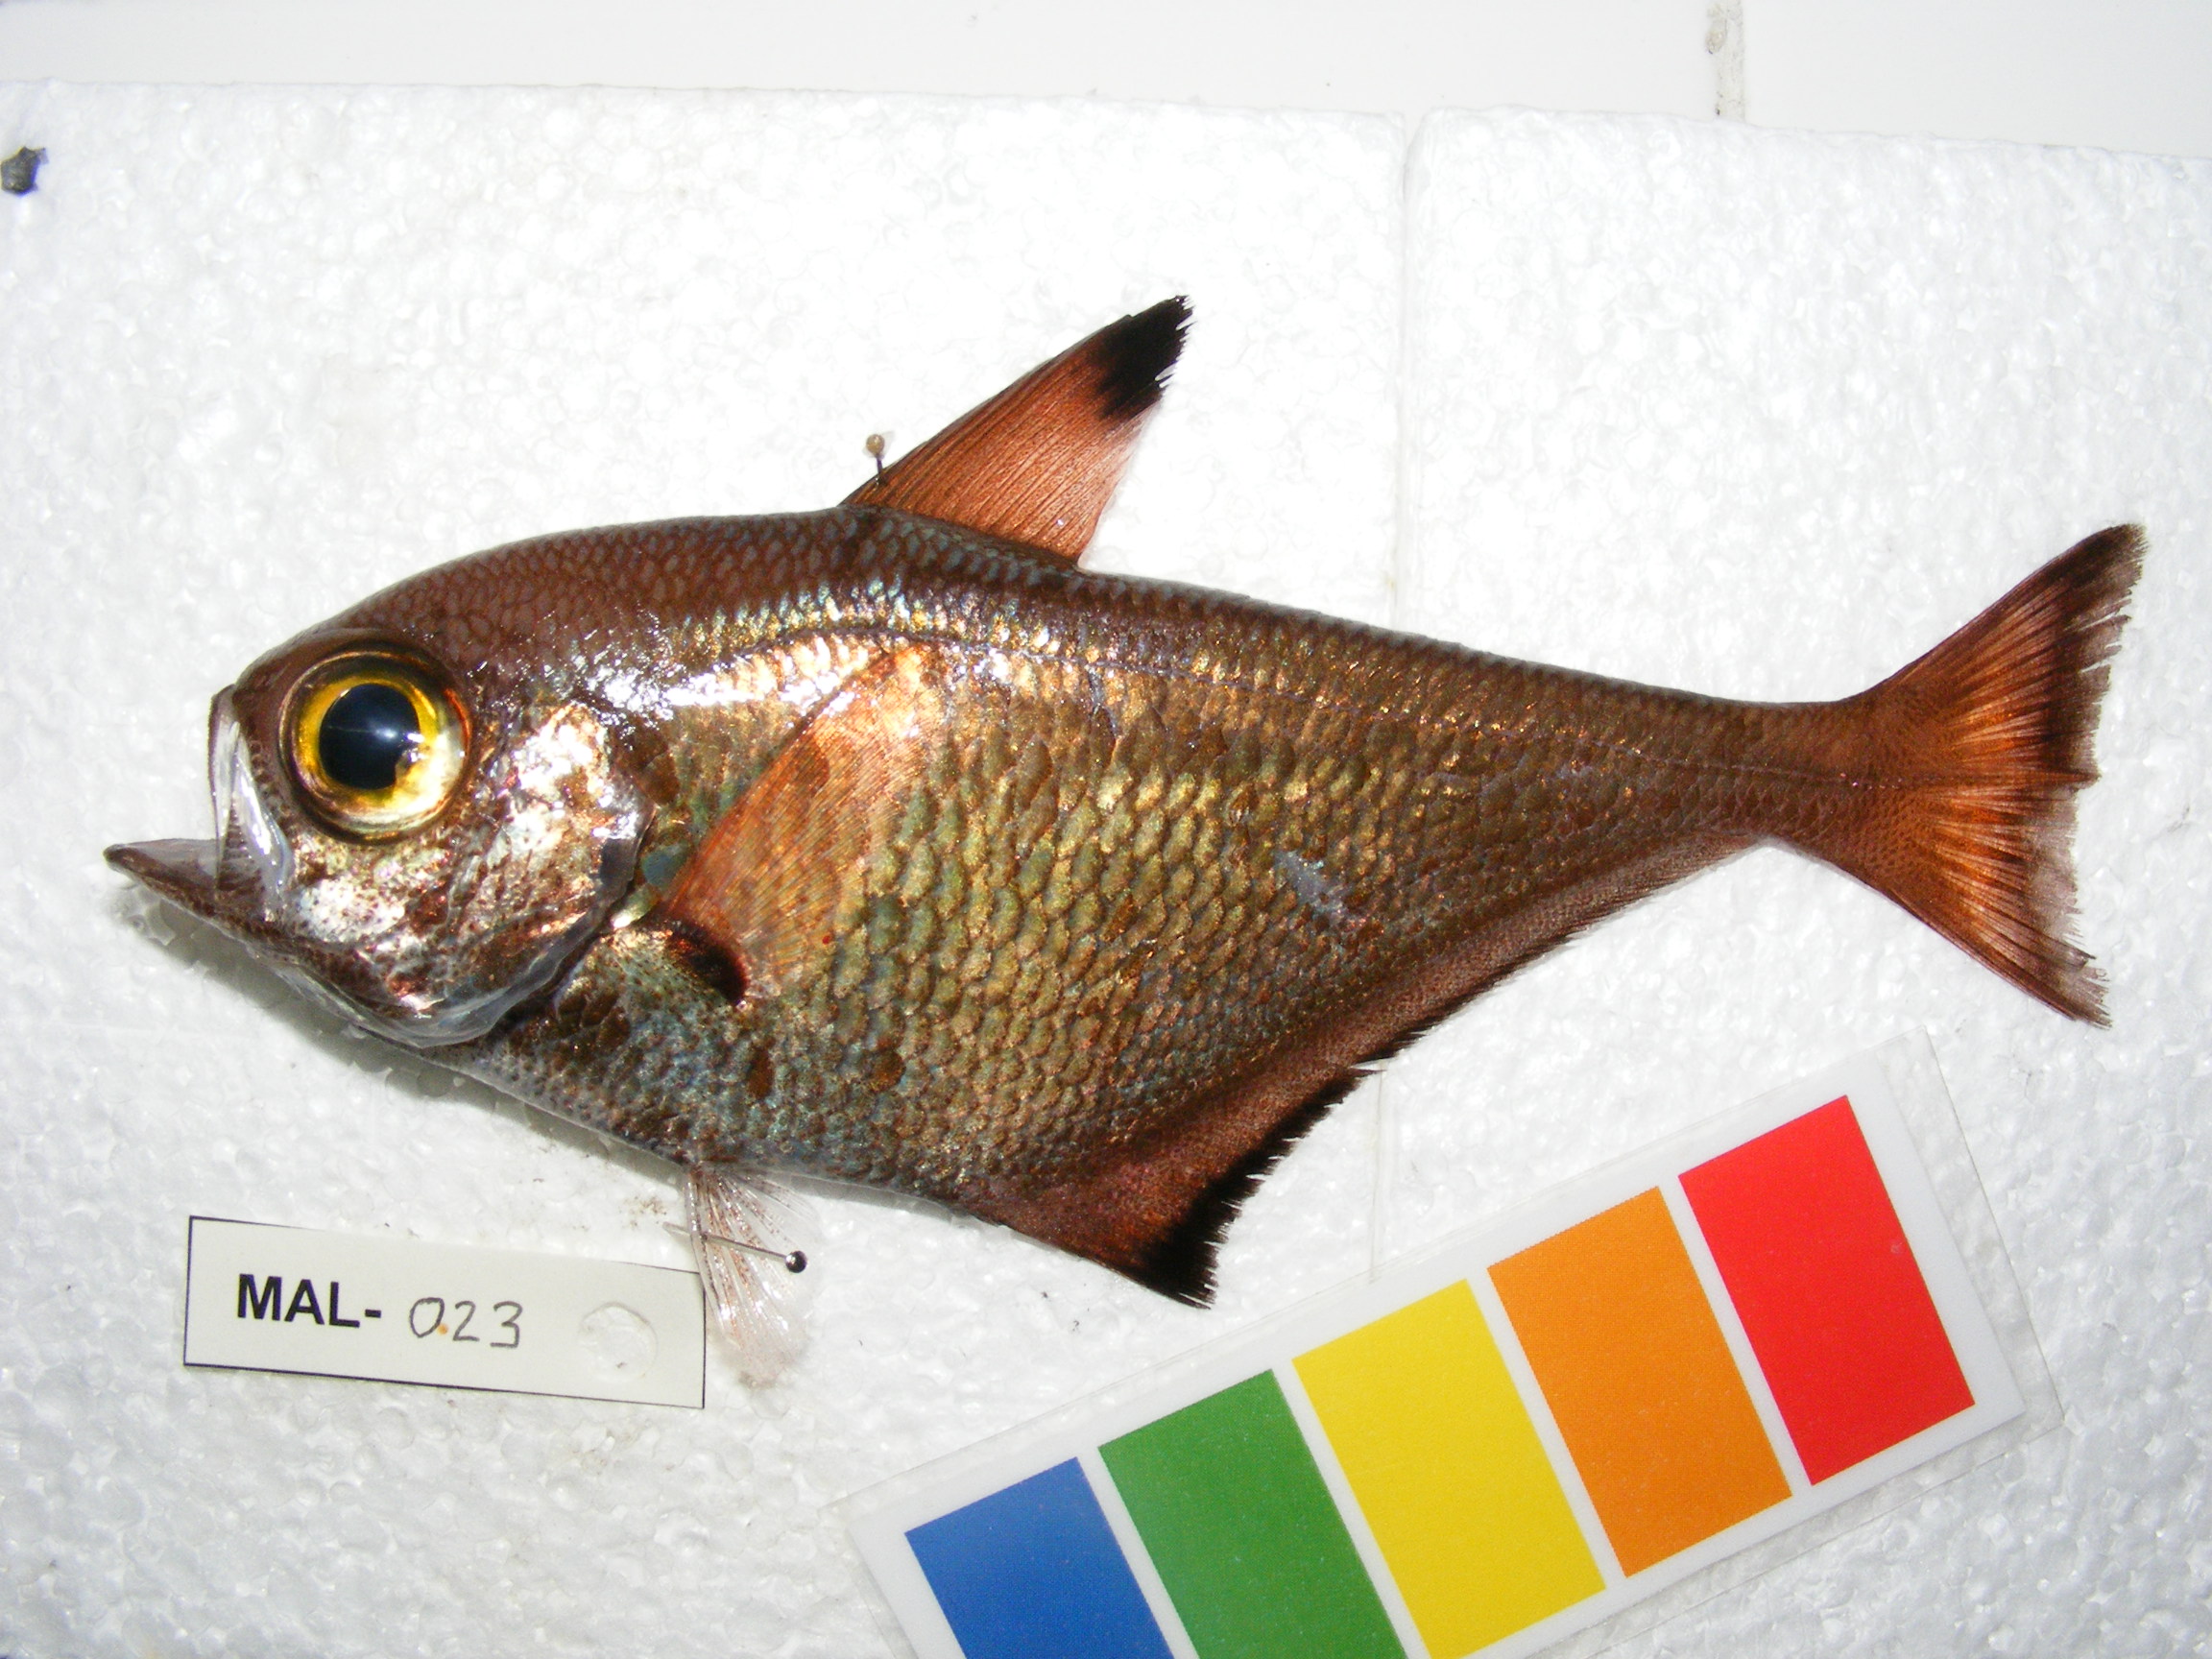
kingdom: Animalia
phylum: Chordata
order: Perciformes
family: Pempheridae
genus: Pempheris
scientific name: Pempheris adusta
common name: Curved bullseye
